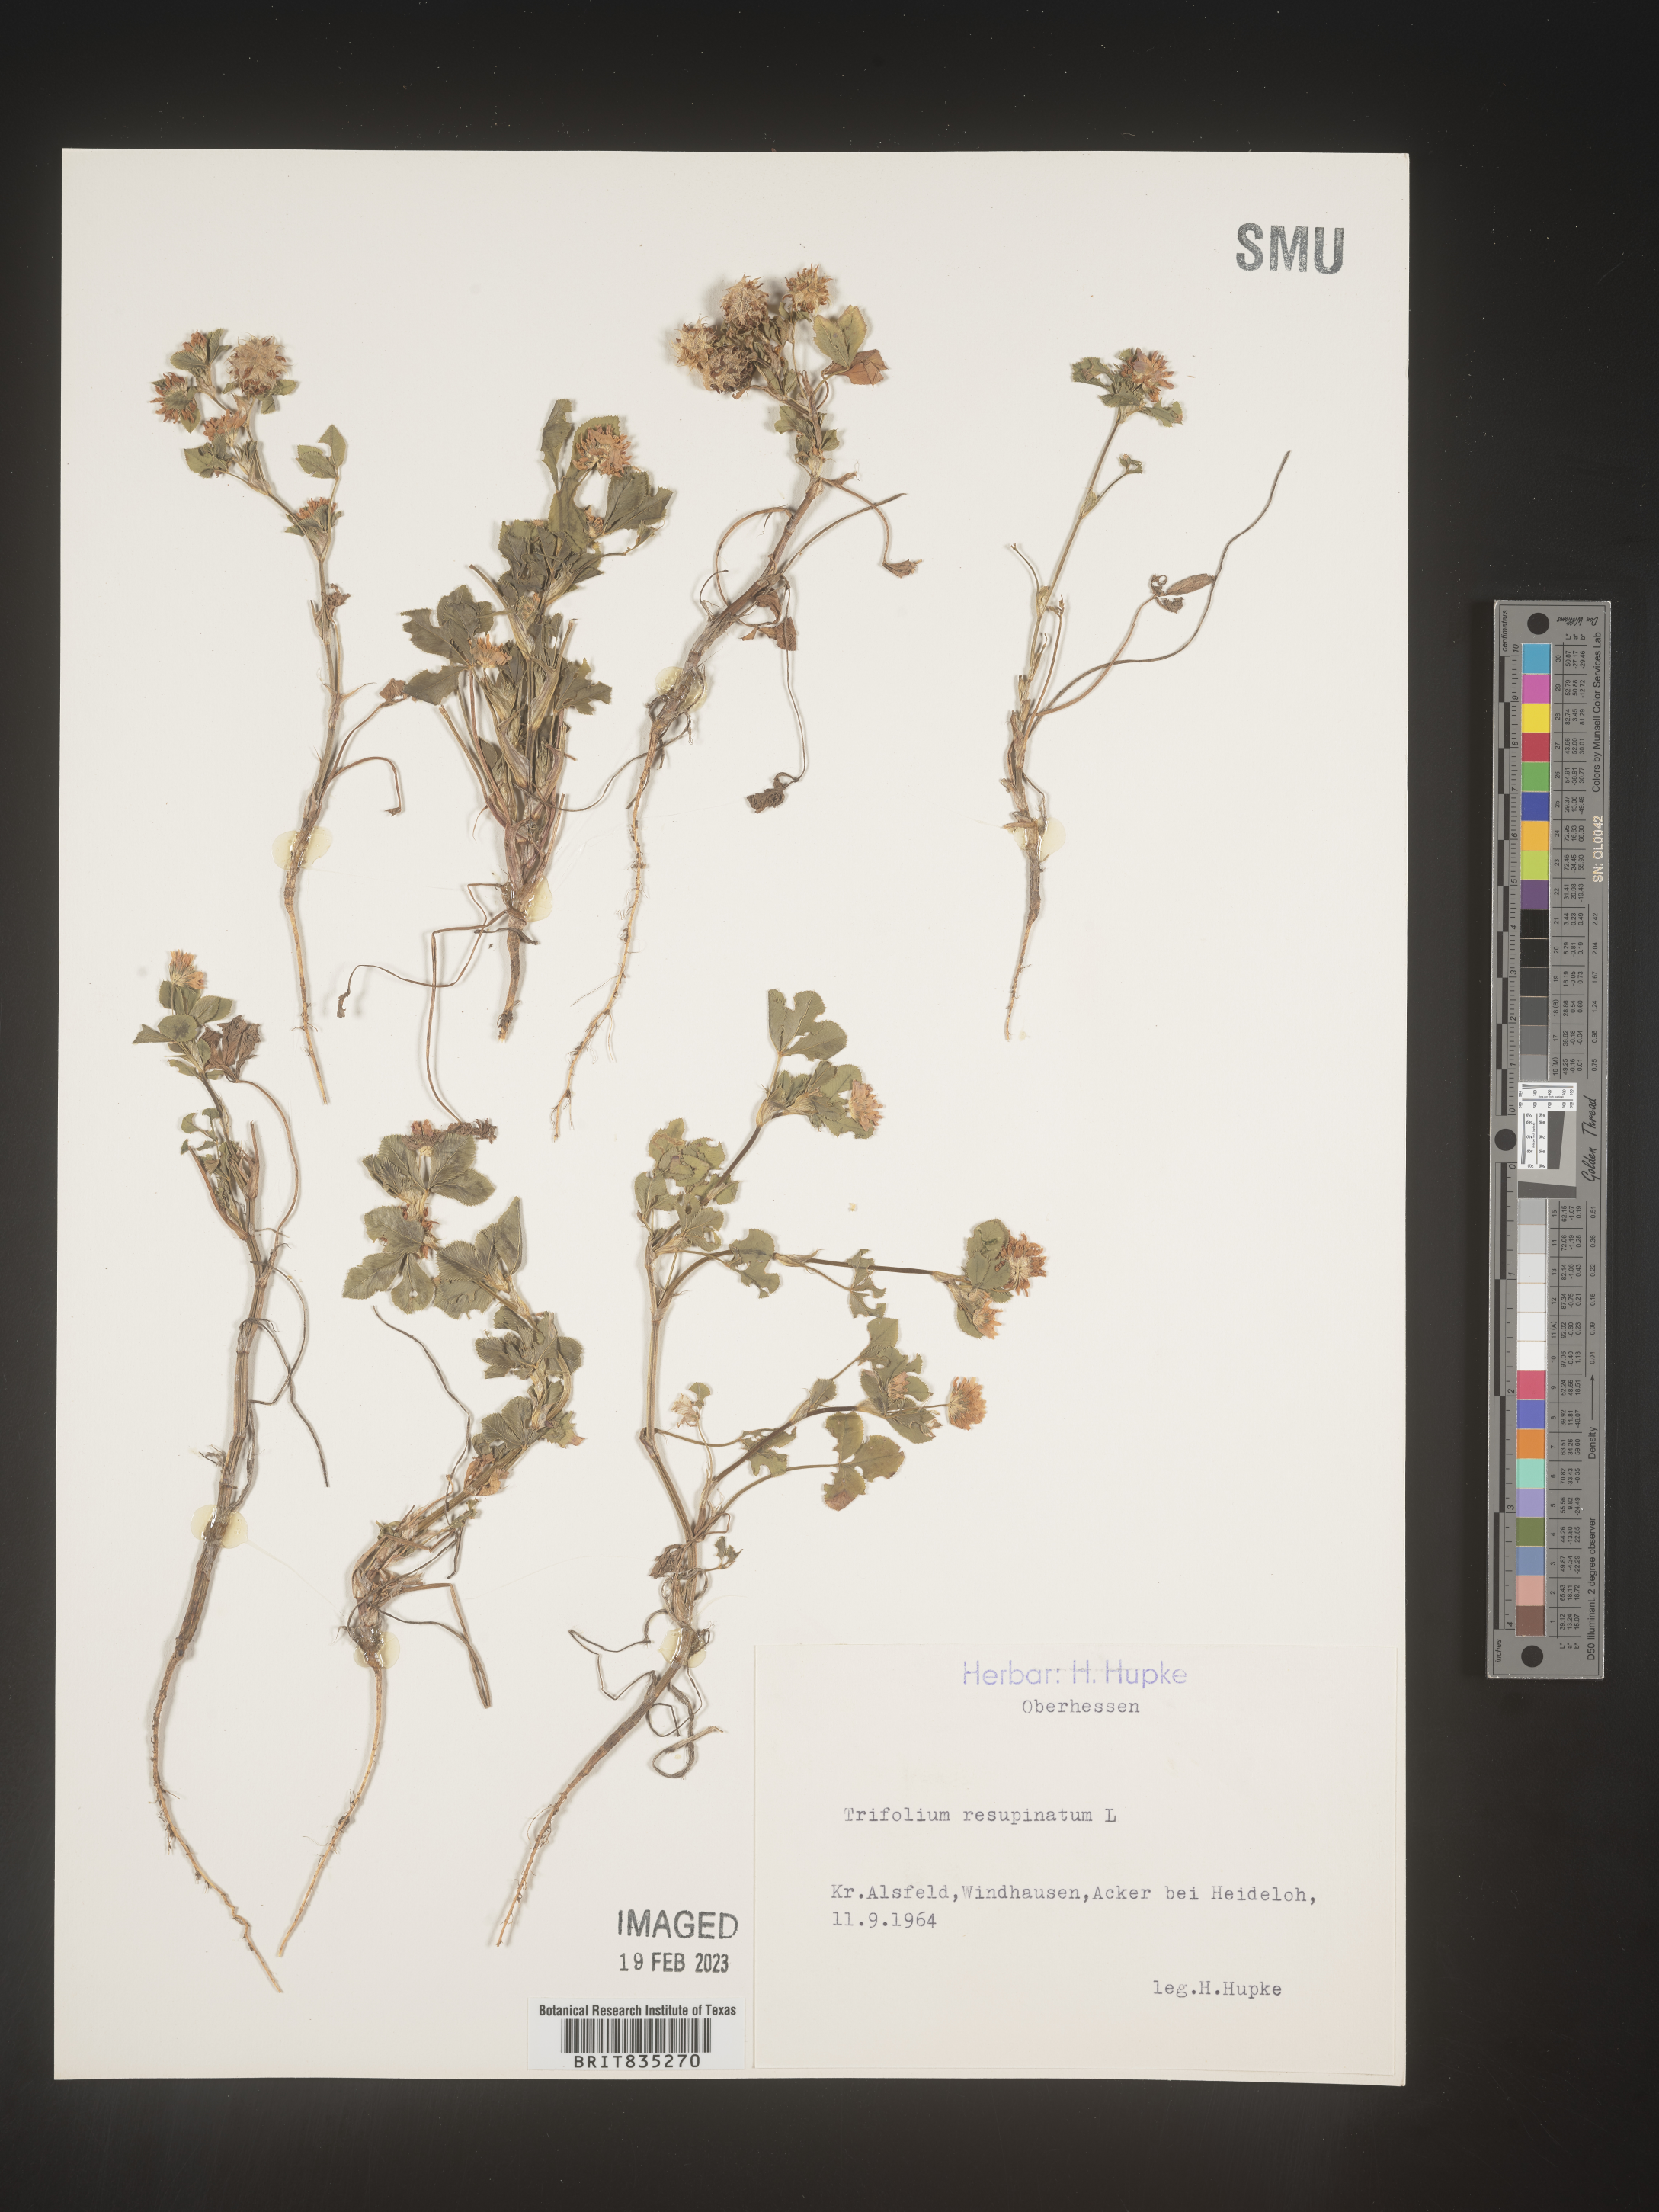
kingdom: Plantae
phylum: Tracheophyta
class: Magnoliopsida
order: Fabales
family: Fabaceae
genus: Trifolium
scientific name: Trifolium
